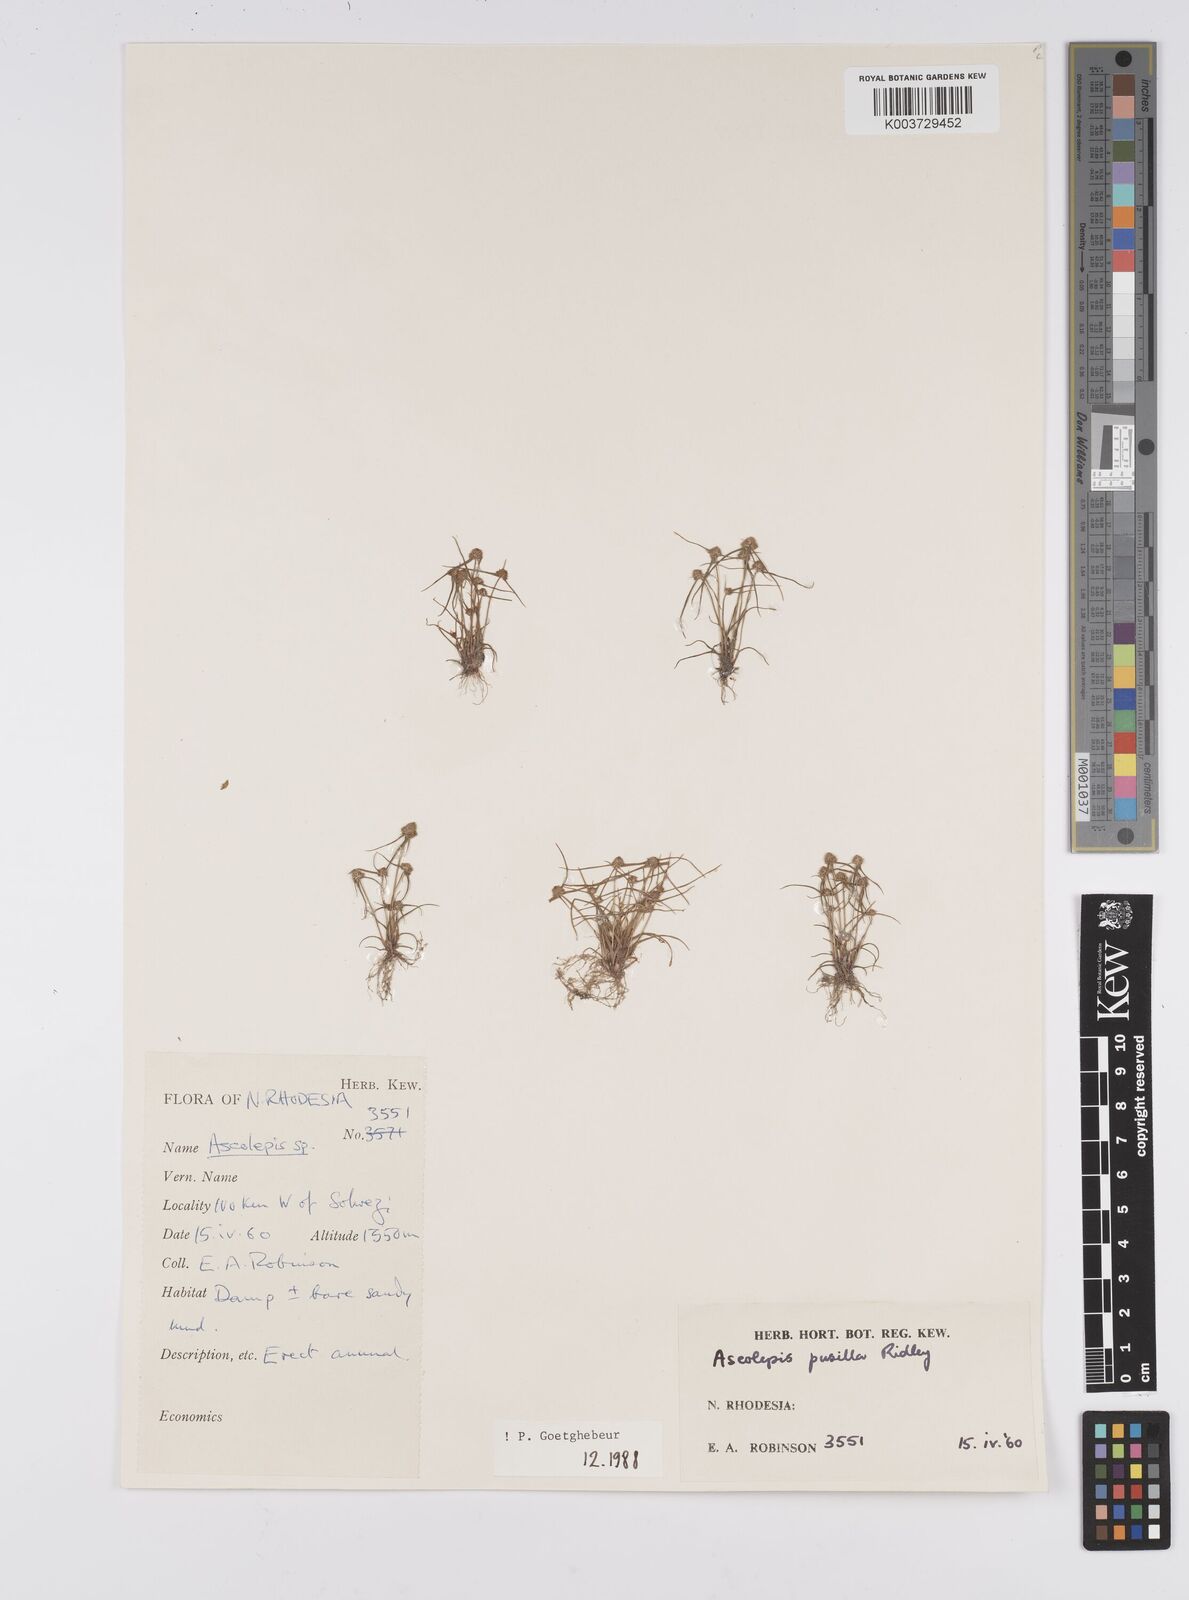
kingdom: Plantae
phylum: Tracheophyta
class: Liliopsida
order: Poales
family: Cyperaceae
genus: Cyperus
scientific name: Cyperus
